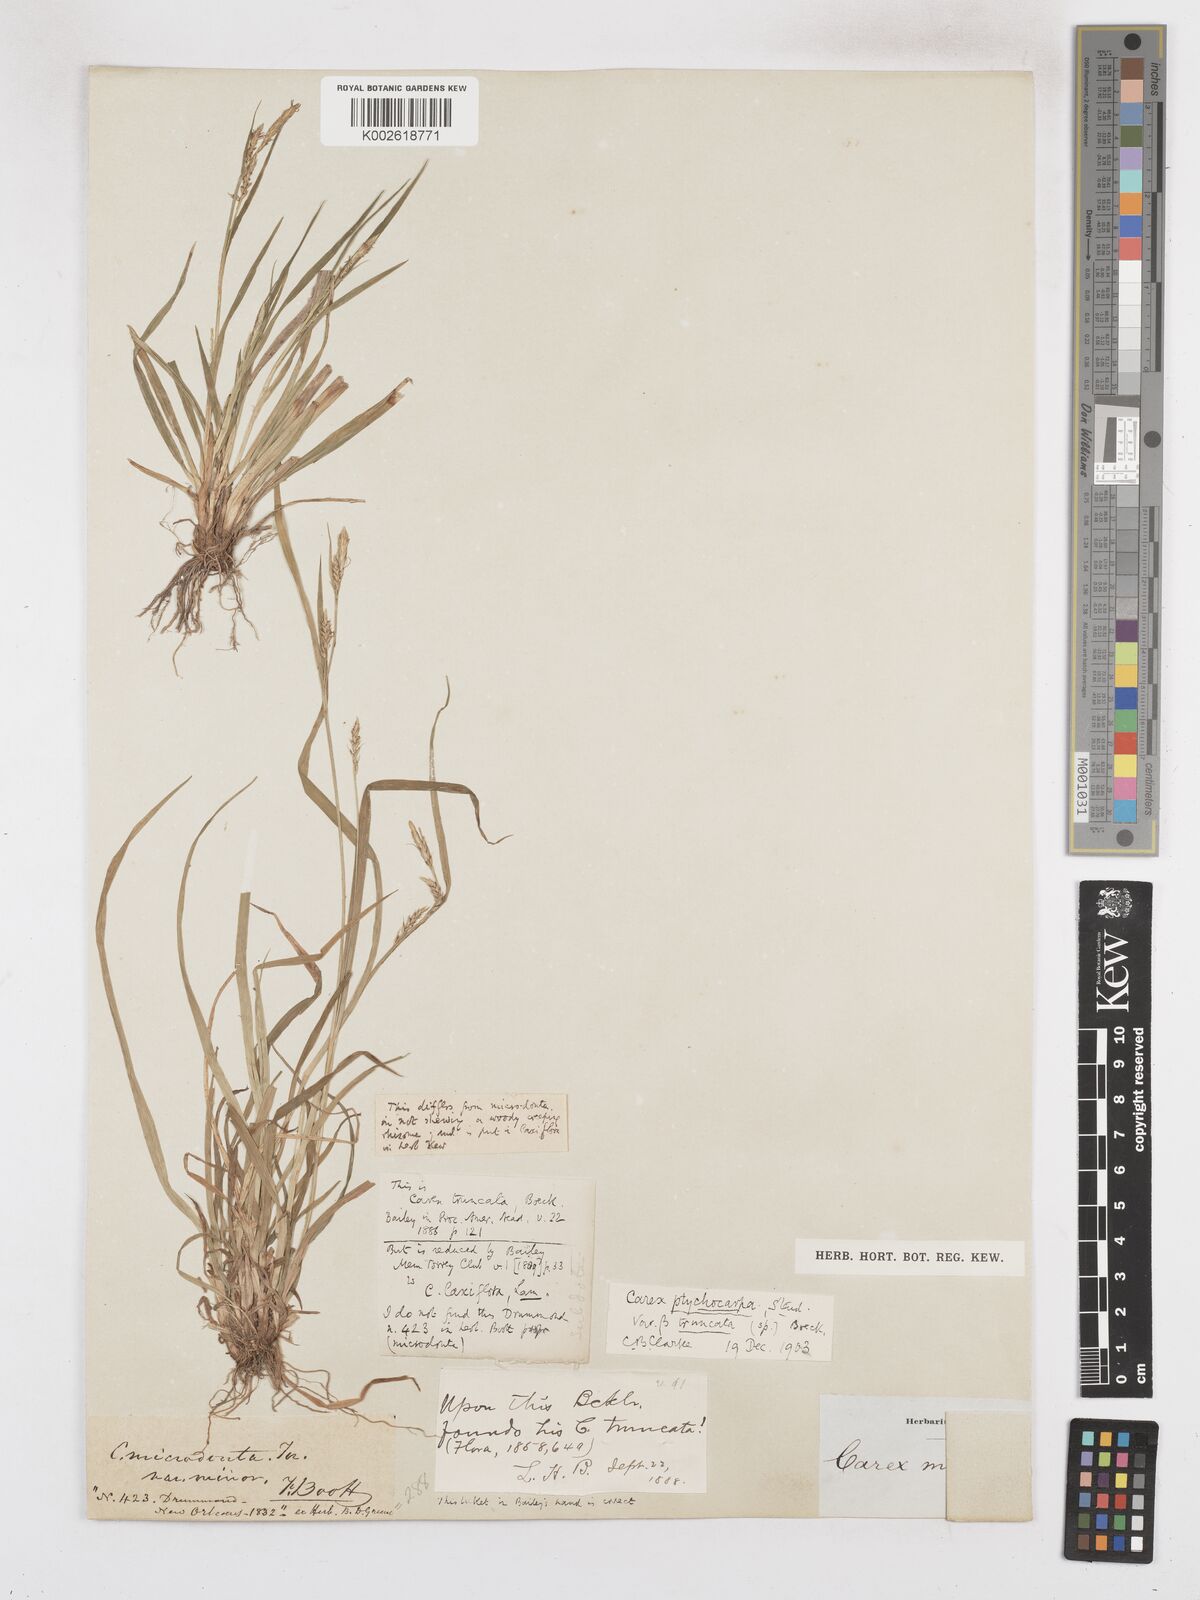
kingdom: Plantae
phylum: Tracheophyta
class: Liliopsida
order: Poales
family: Cyperaceae
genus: Carex
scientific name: Carex abscondita
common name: Thicket sedge
